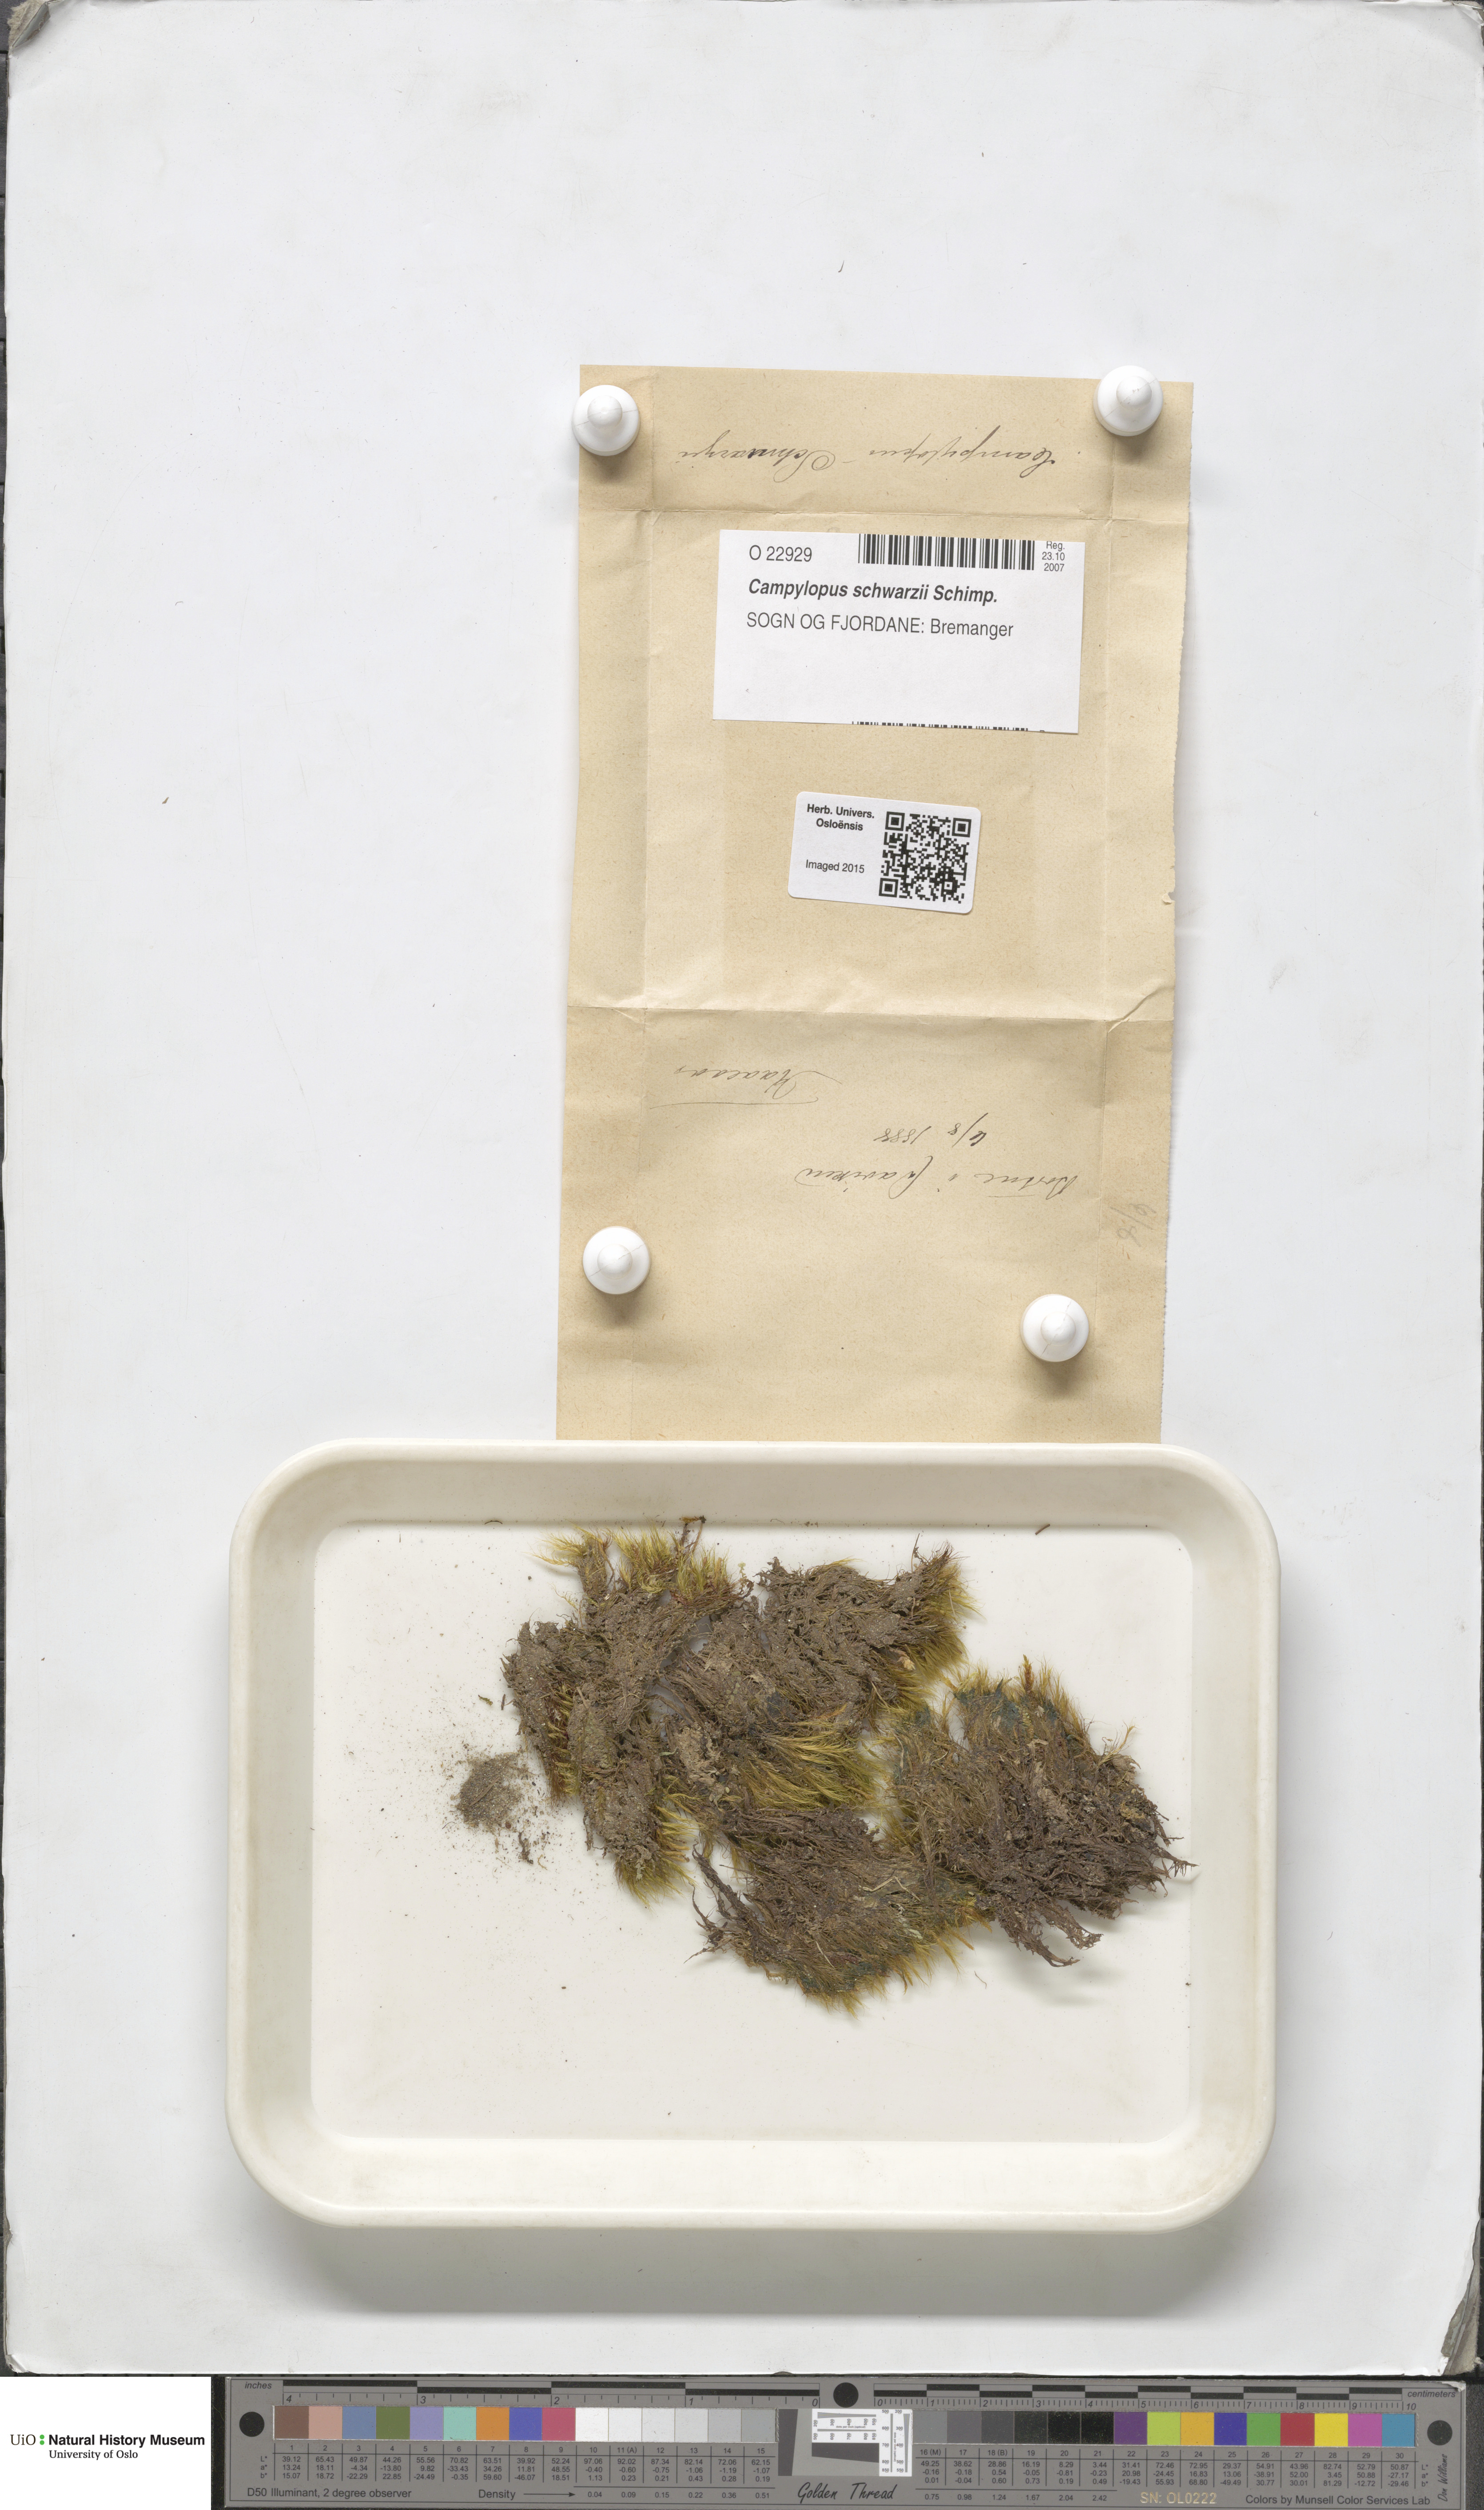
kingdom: Plantae
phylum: Bryophyta
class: Bryopsida
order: Dicranales
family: Leucobryaceae
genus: Campylopus
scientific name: Campylopus gracilis
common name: Schwarz's swan-neck moss
